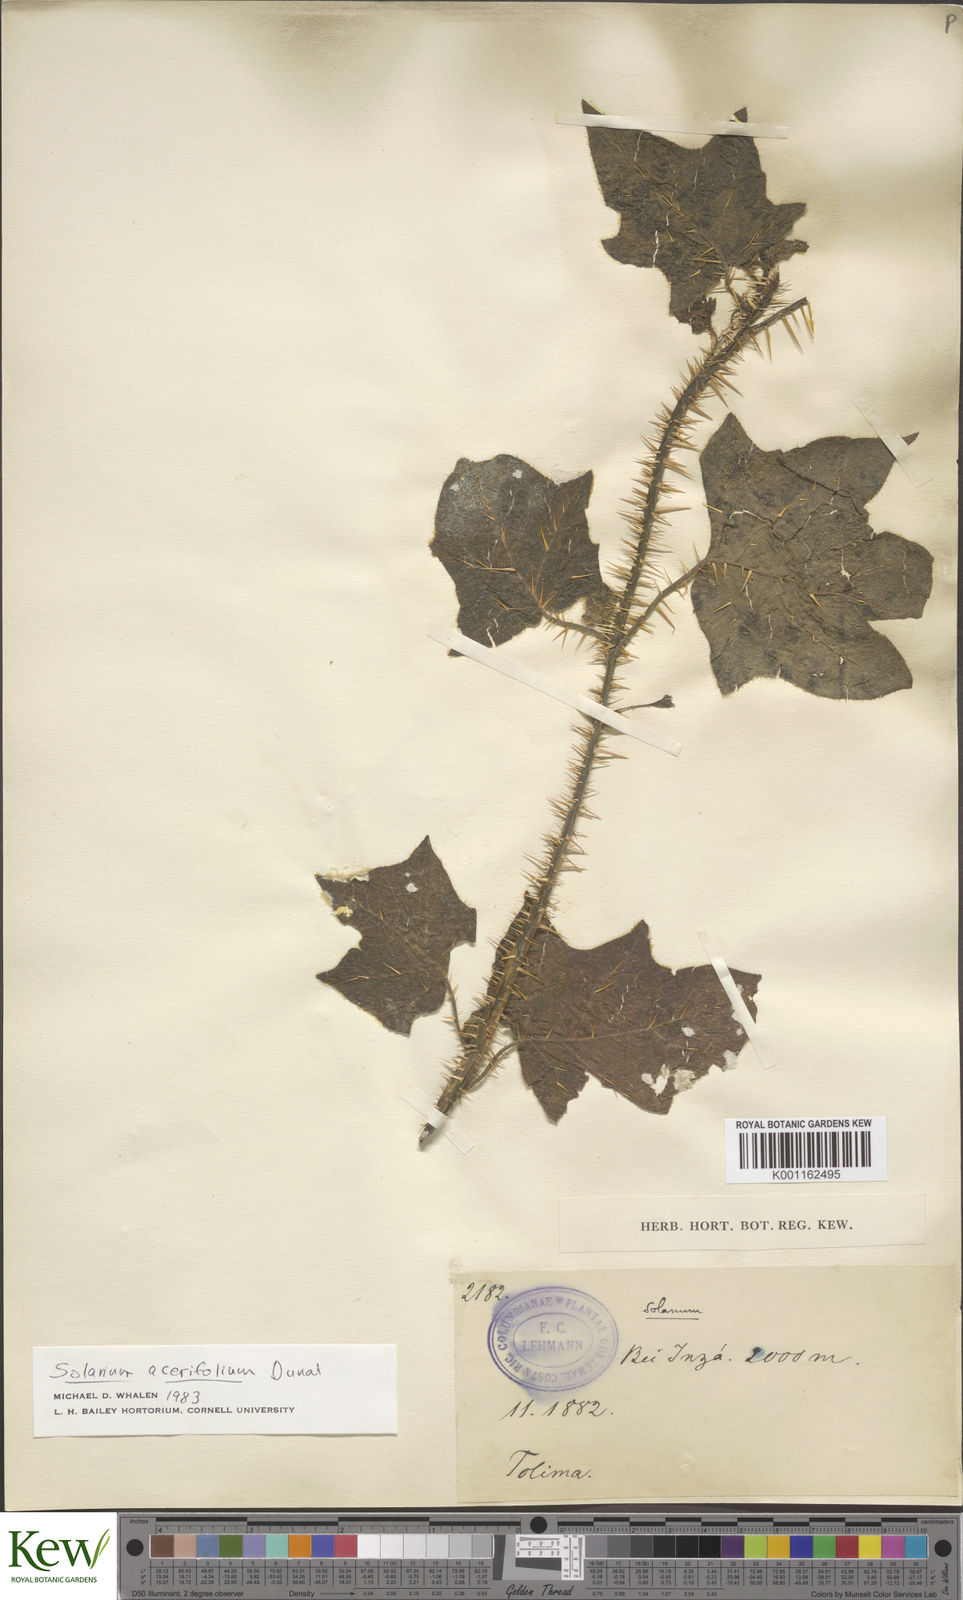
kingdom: Plantae
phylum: Tracheophyta
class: Magnoliopsida
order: Solanales
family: Solanaceae
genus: Solanum
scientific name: Solanum acerifolium
